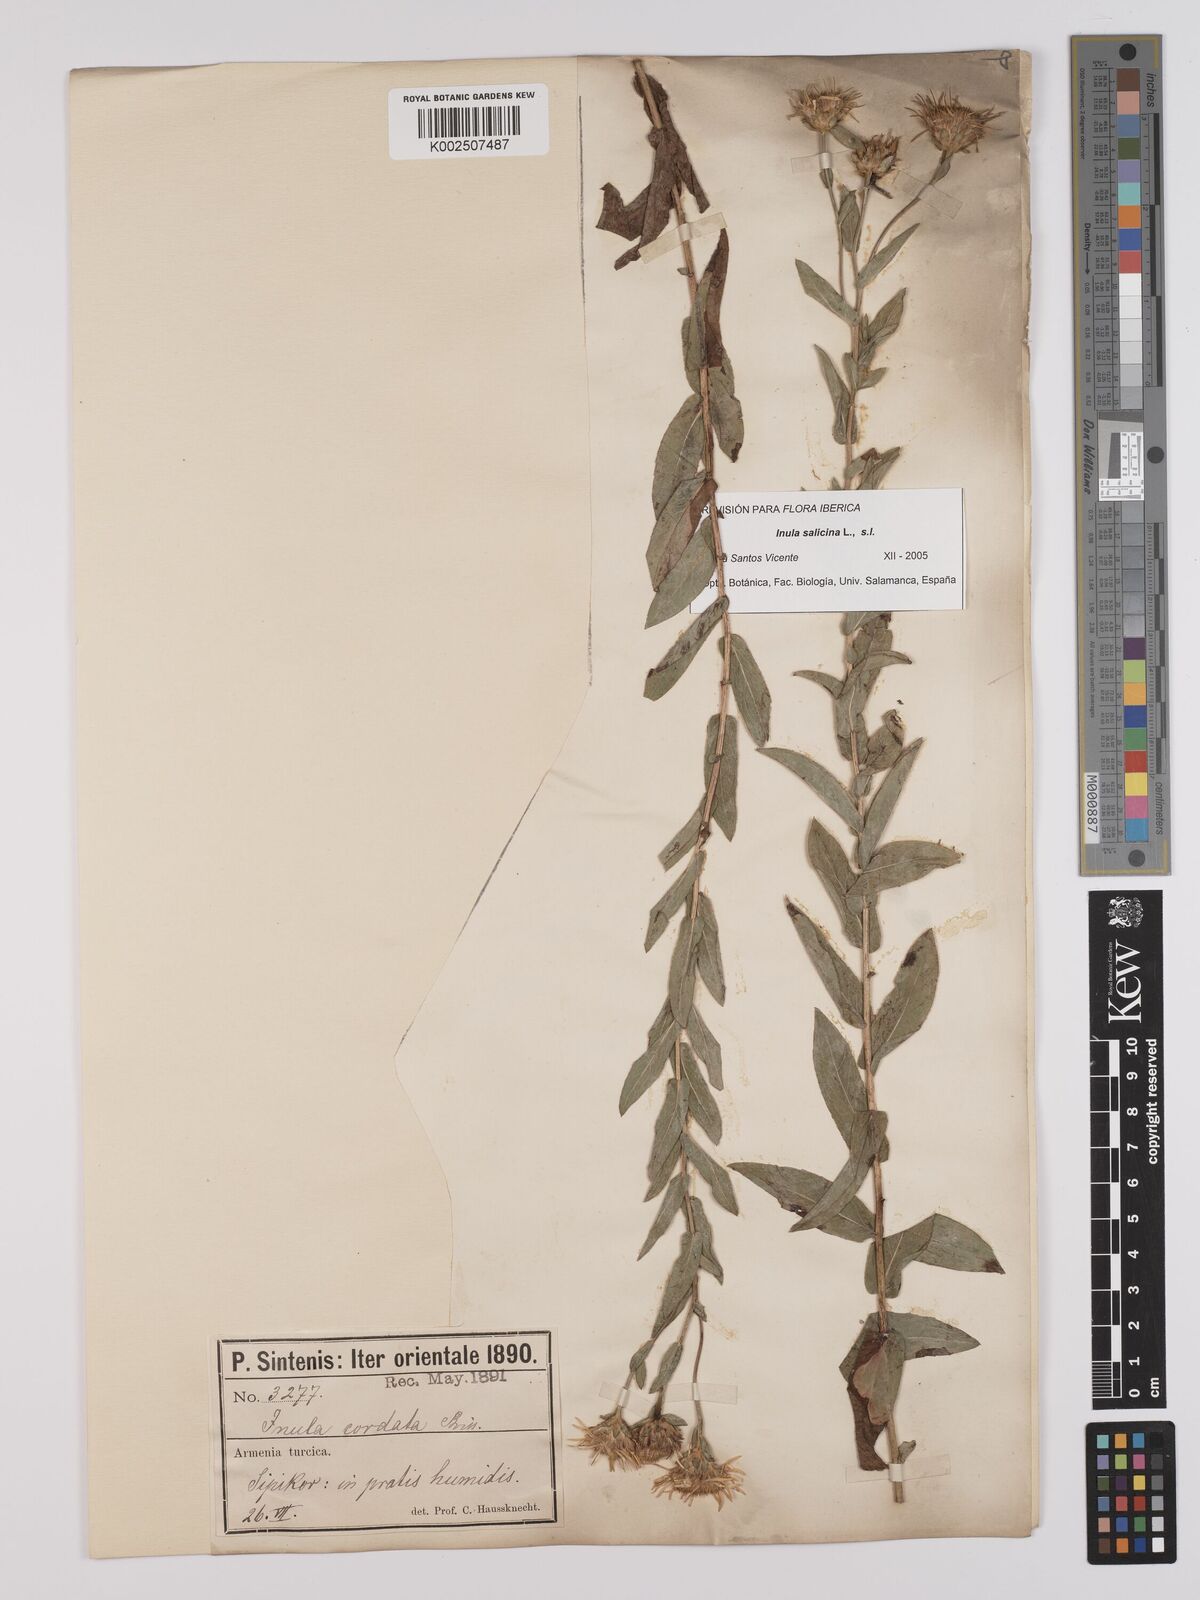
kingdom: Plantae
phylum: Tracheophyta
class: Magnoliopsida
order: Asterales
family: Asteraceae
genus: Pentanema
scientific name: Pentanema salicinum
